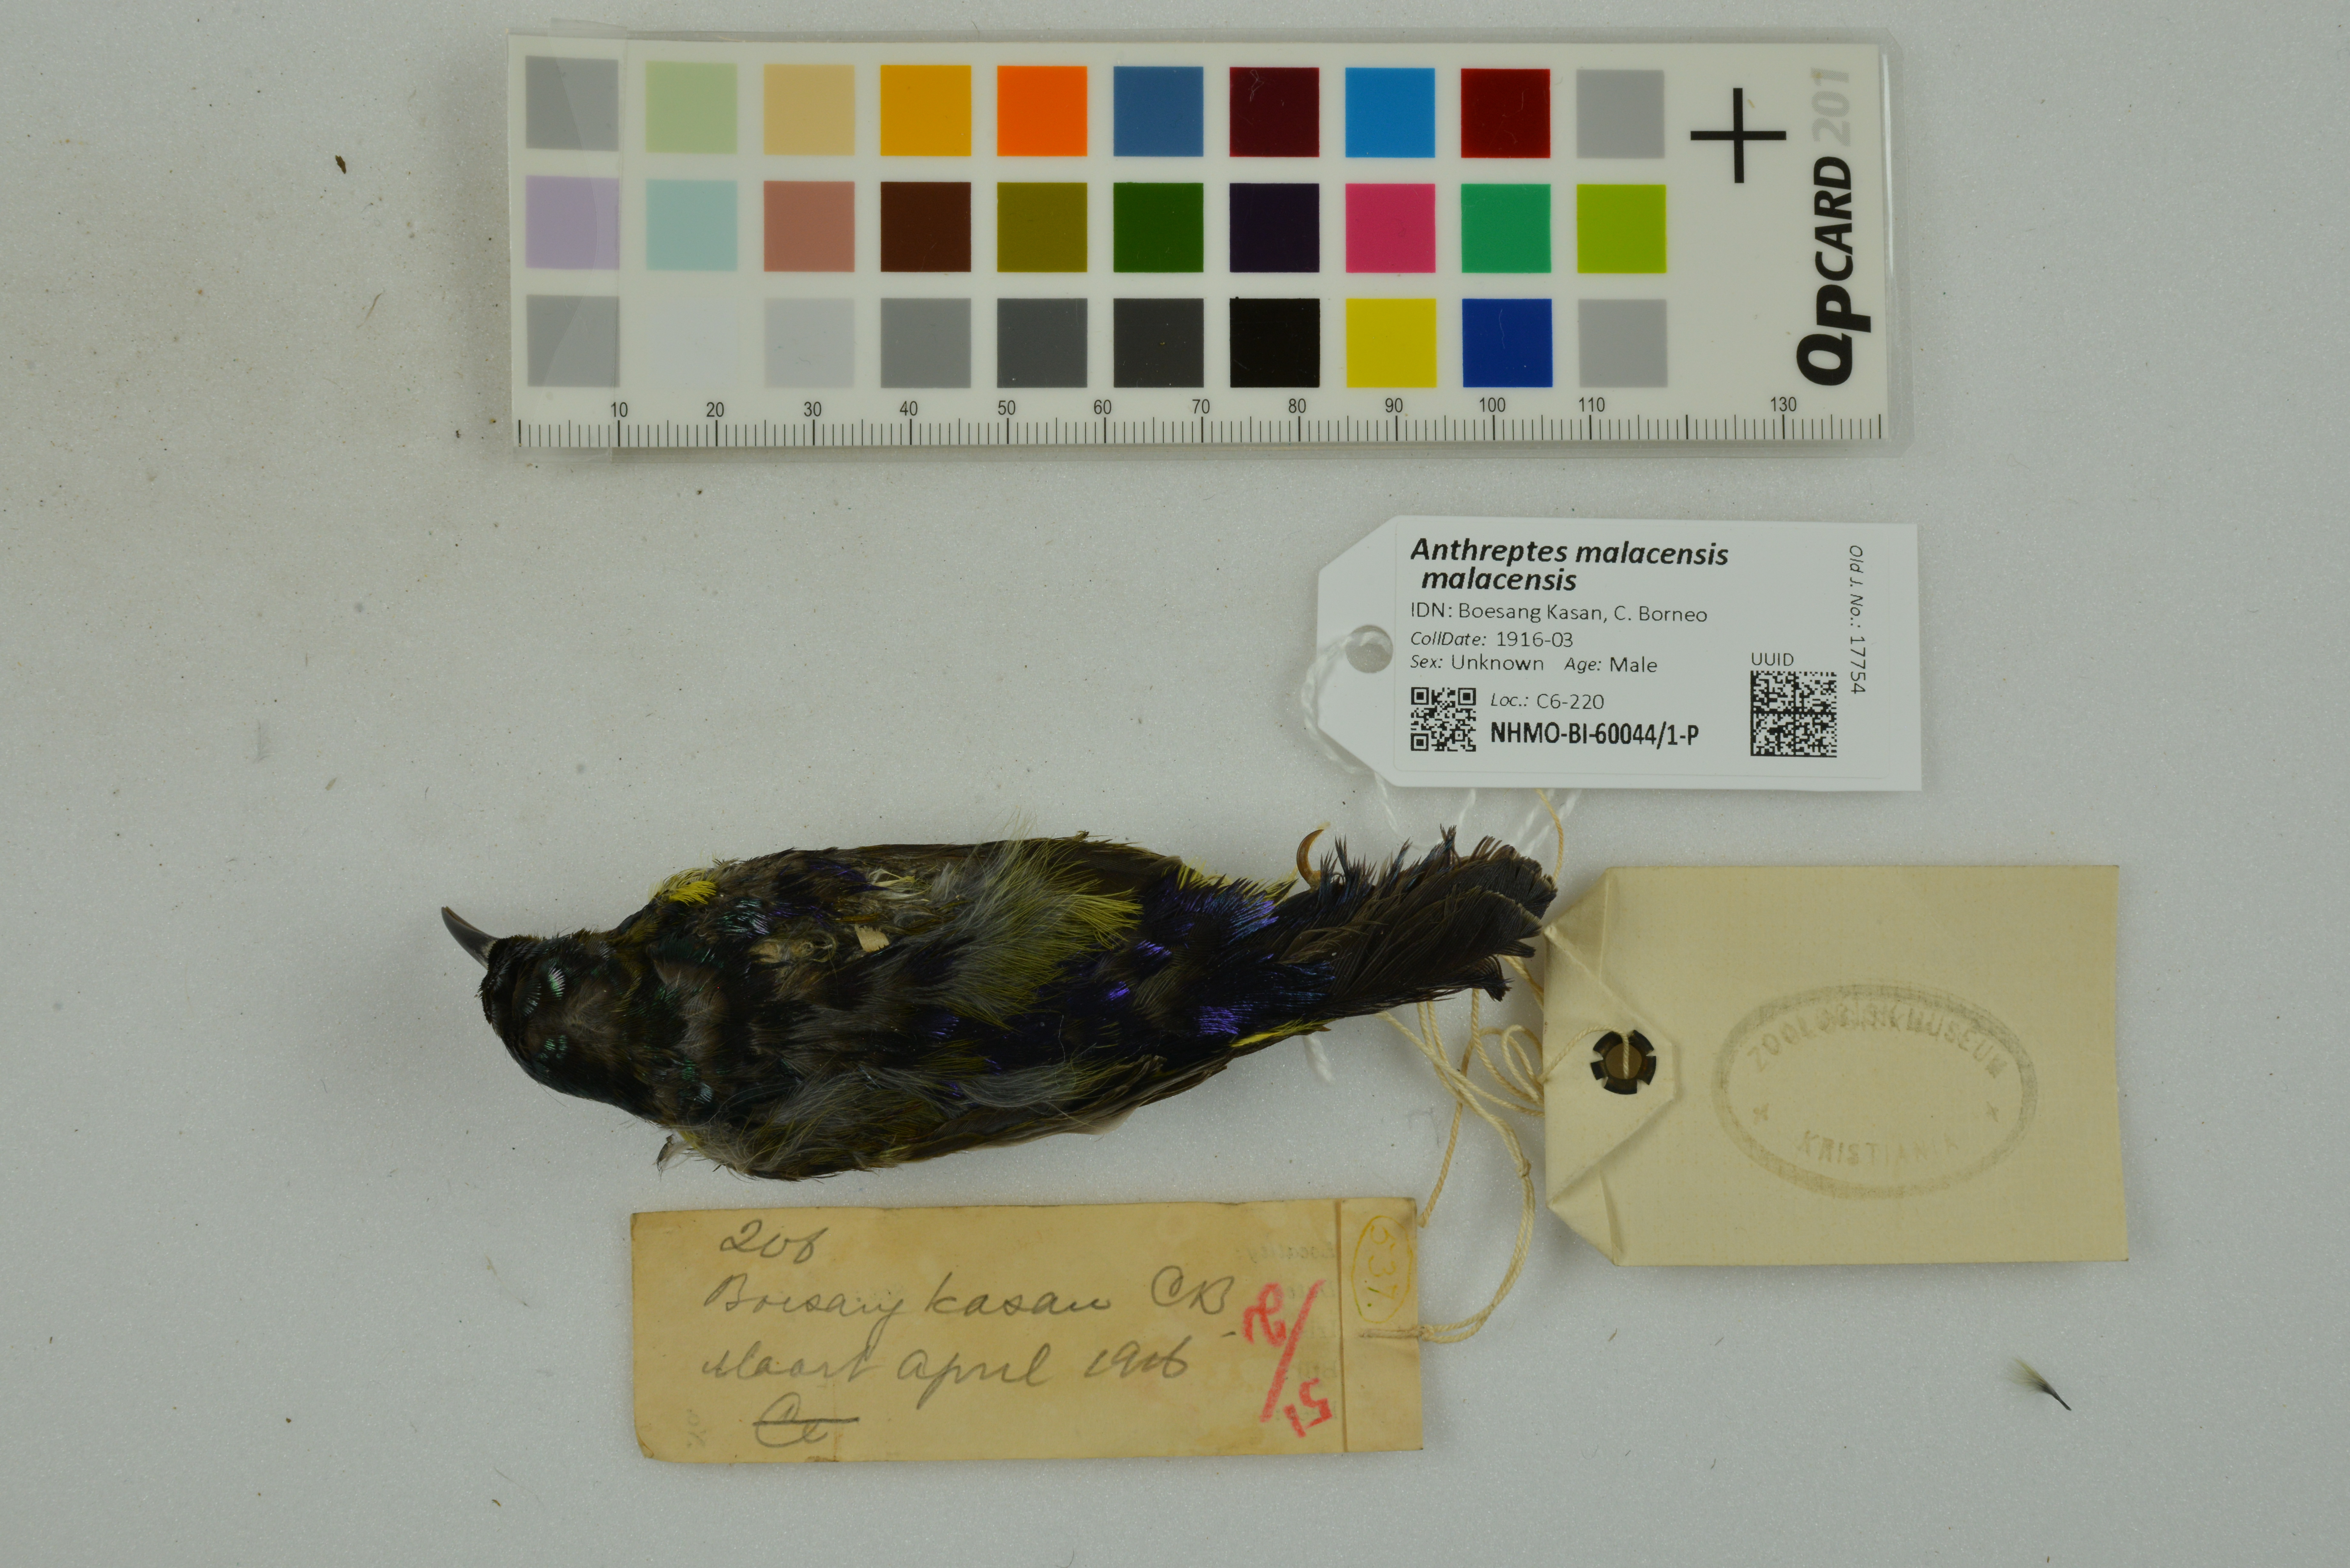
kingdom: Animalia
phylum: Chordata
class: Aves
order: Passeriformes
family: Nectariniidae
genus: Anthreptes
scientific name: Anthreptes malacensis
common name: Brown-throated sunbird
